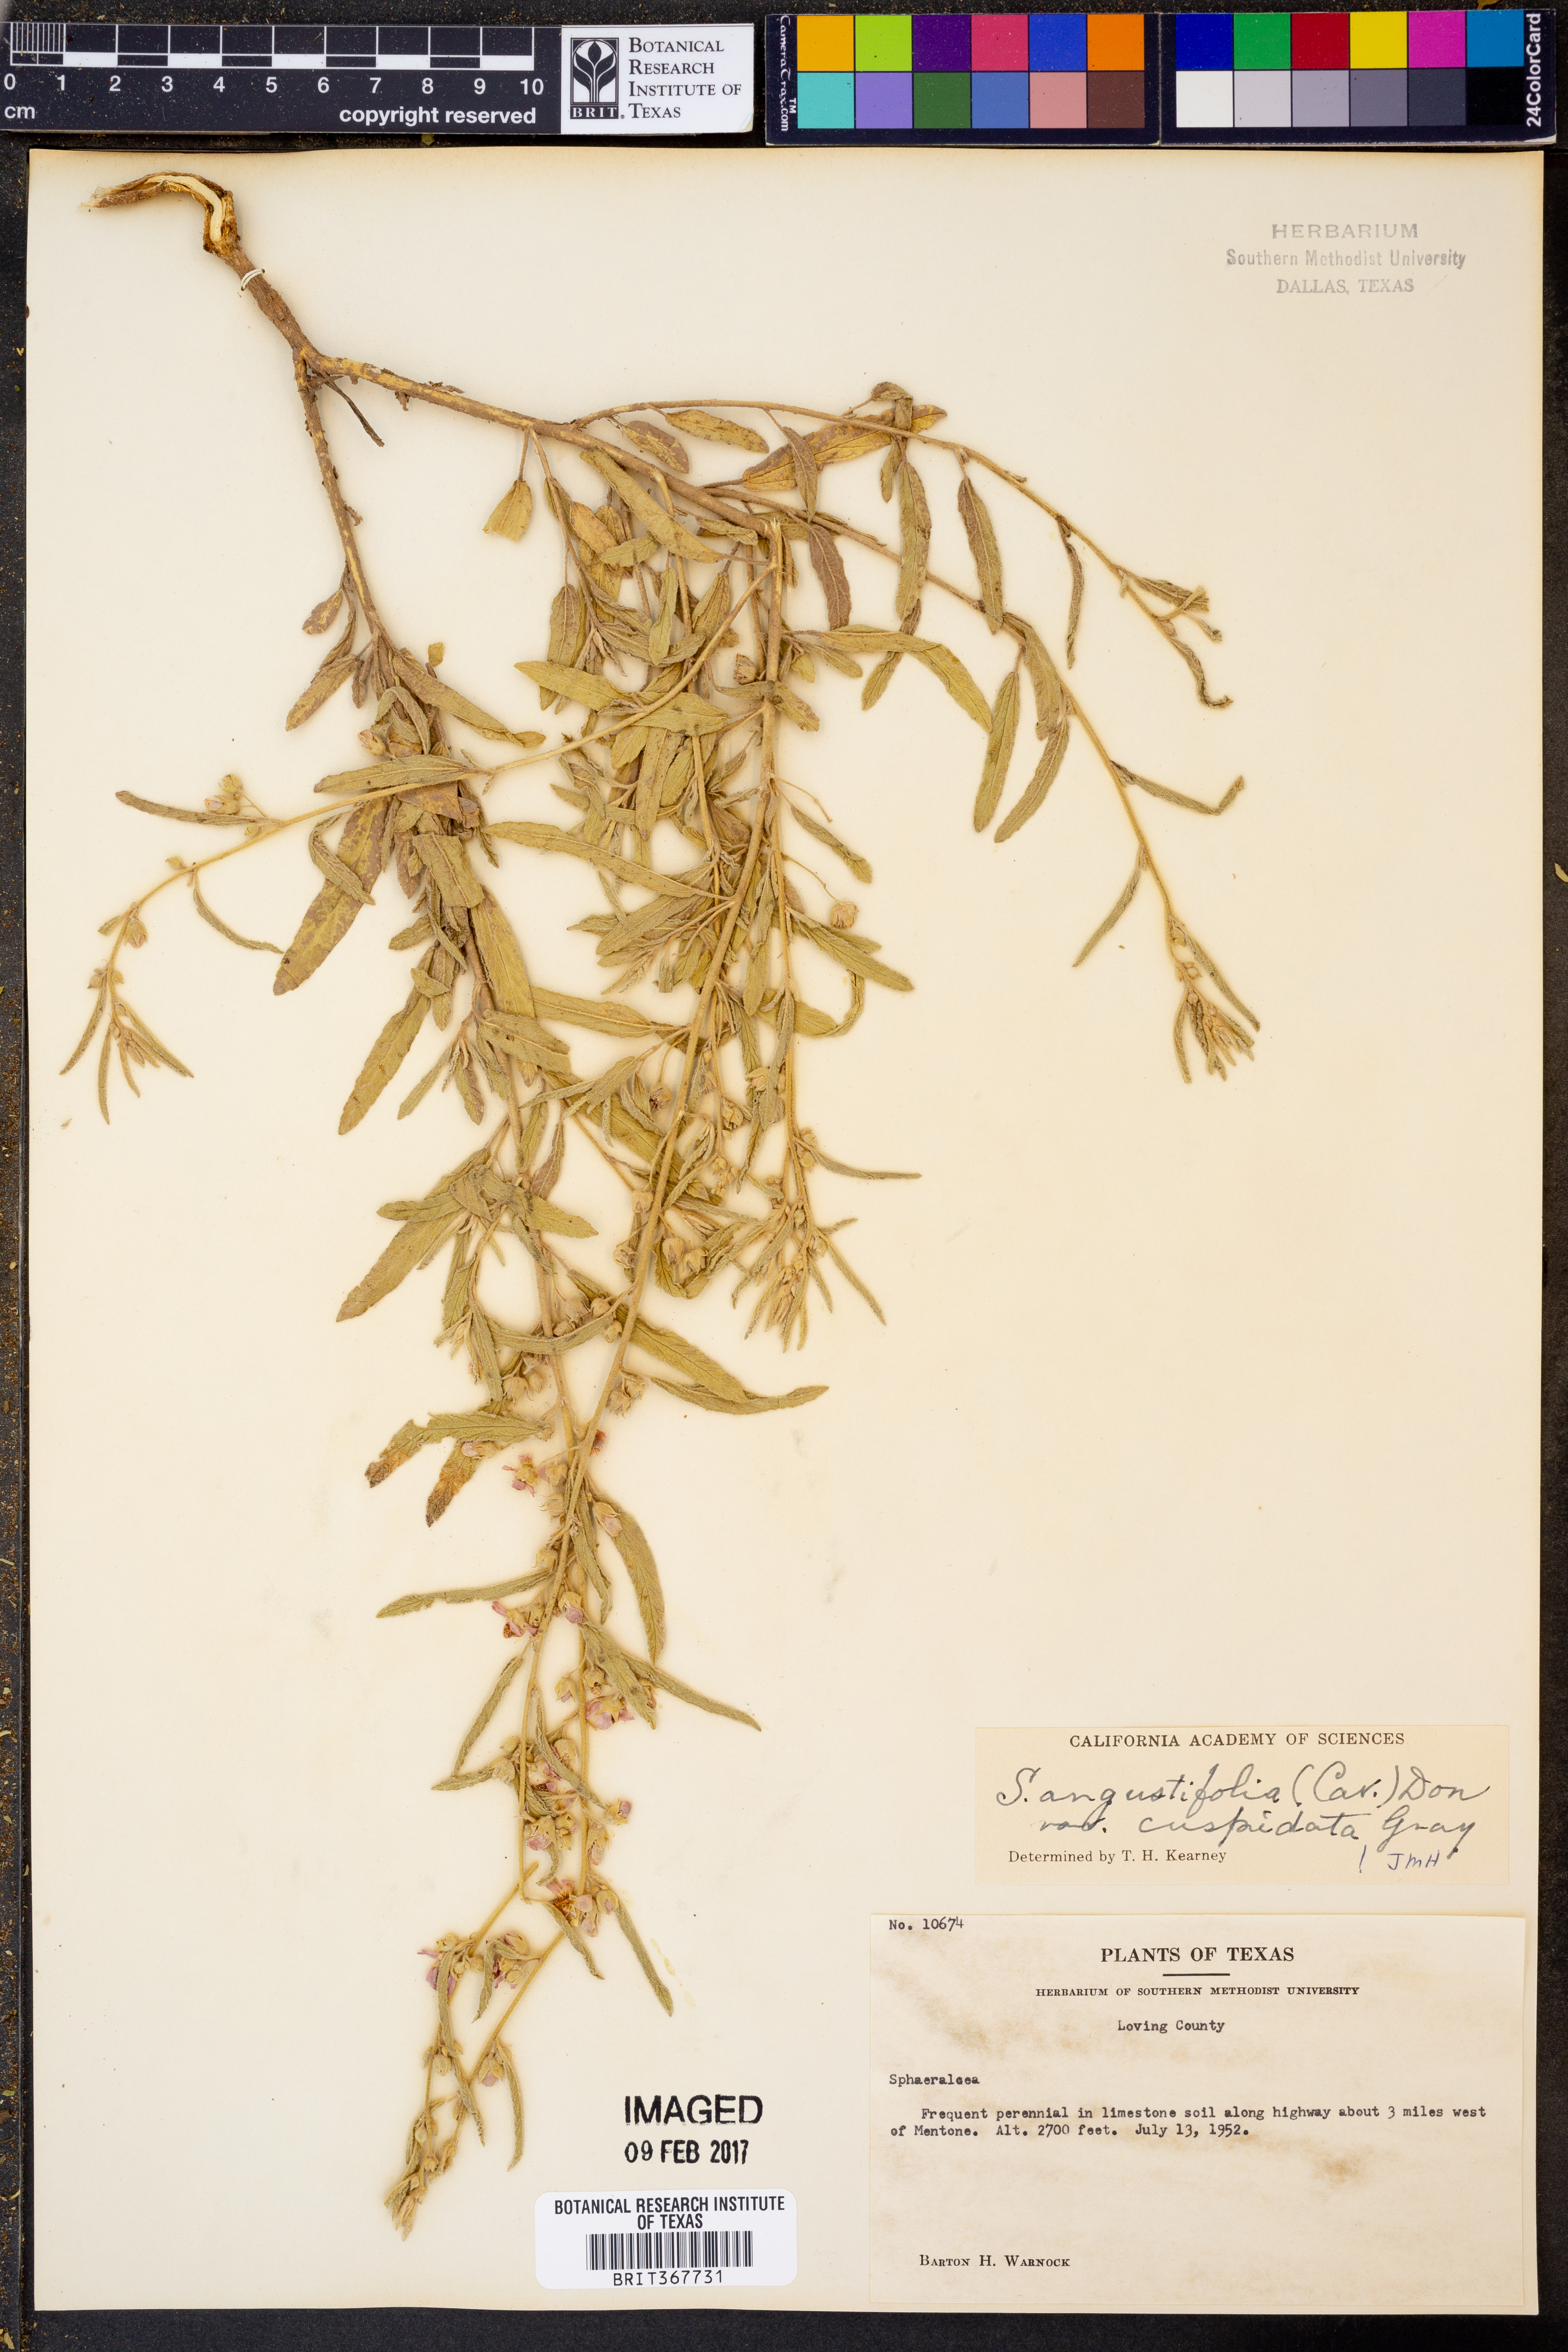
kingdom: Plantae
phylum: Tracheophyta
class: Magnoliopsida
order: Malvales
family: Malvaceae
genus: Sphaeralcea
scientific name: Sphaeralcea angustifolia
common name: Copper globe-mallow
